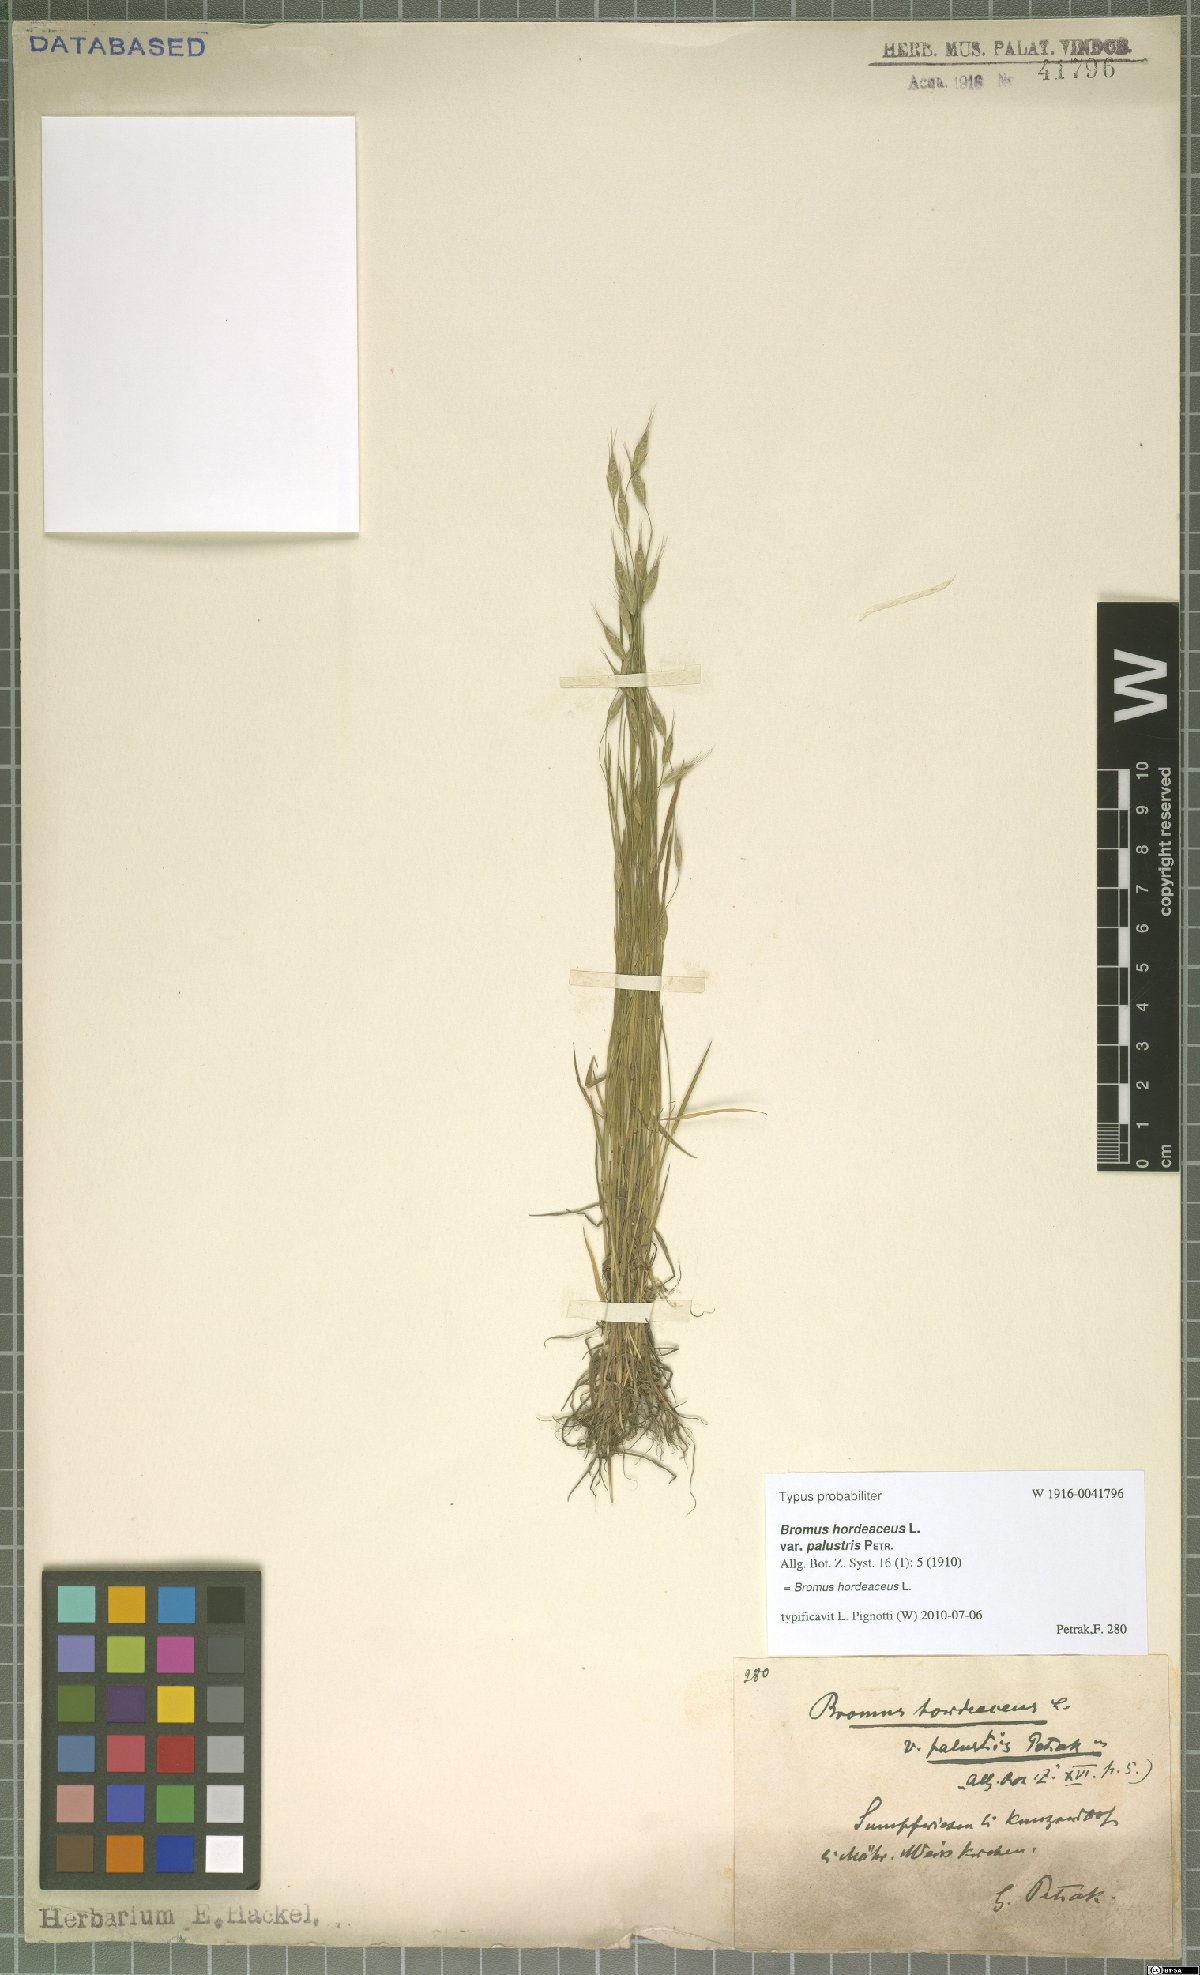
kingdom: Plantae
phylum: Tracheophyta
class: Liliopsida
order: Poales
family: Poaceae
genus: Bromus
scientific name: Bromus hordeaceus
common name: Soft brome
